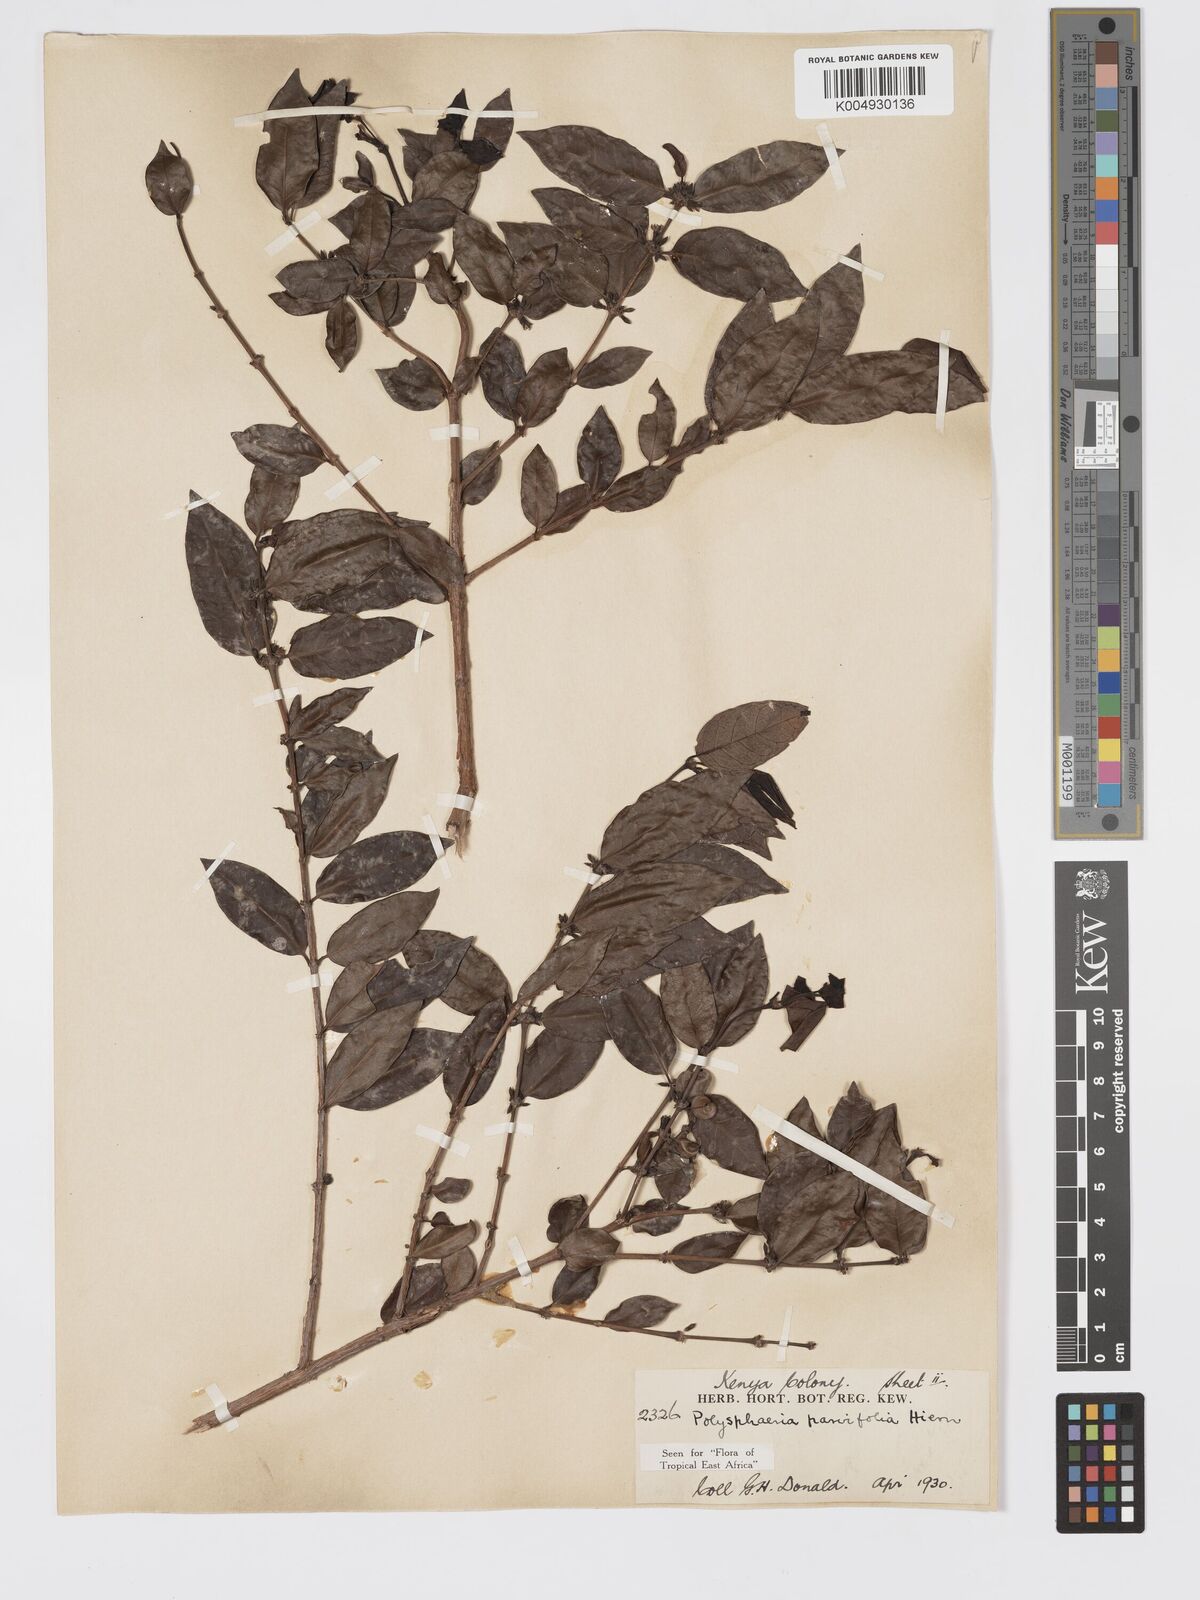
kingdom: Plantae
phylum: Tracheophyta
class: Magnoliopsida
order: Gentianales
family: Rubiaceae
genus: Polysphaeria
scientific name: Polysphaeria parvifolia
